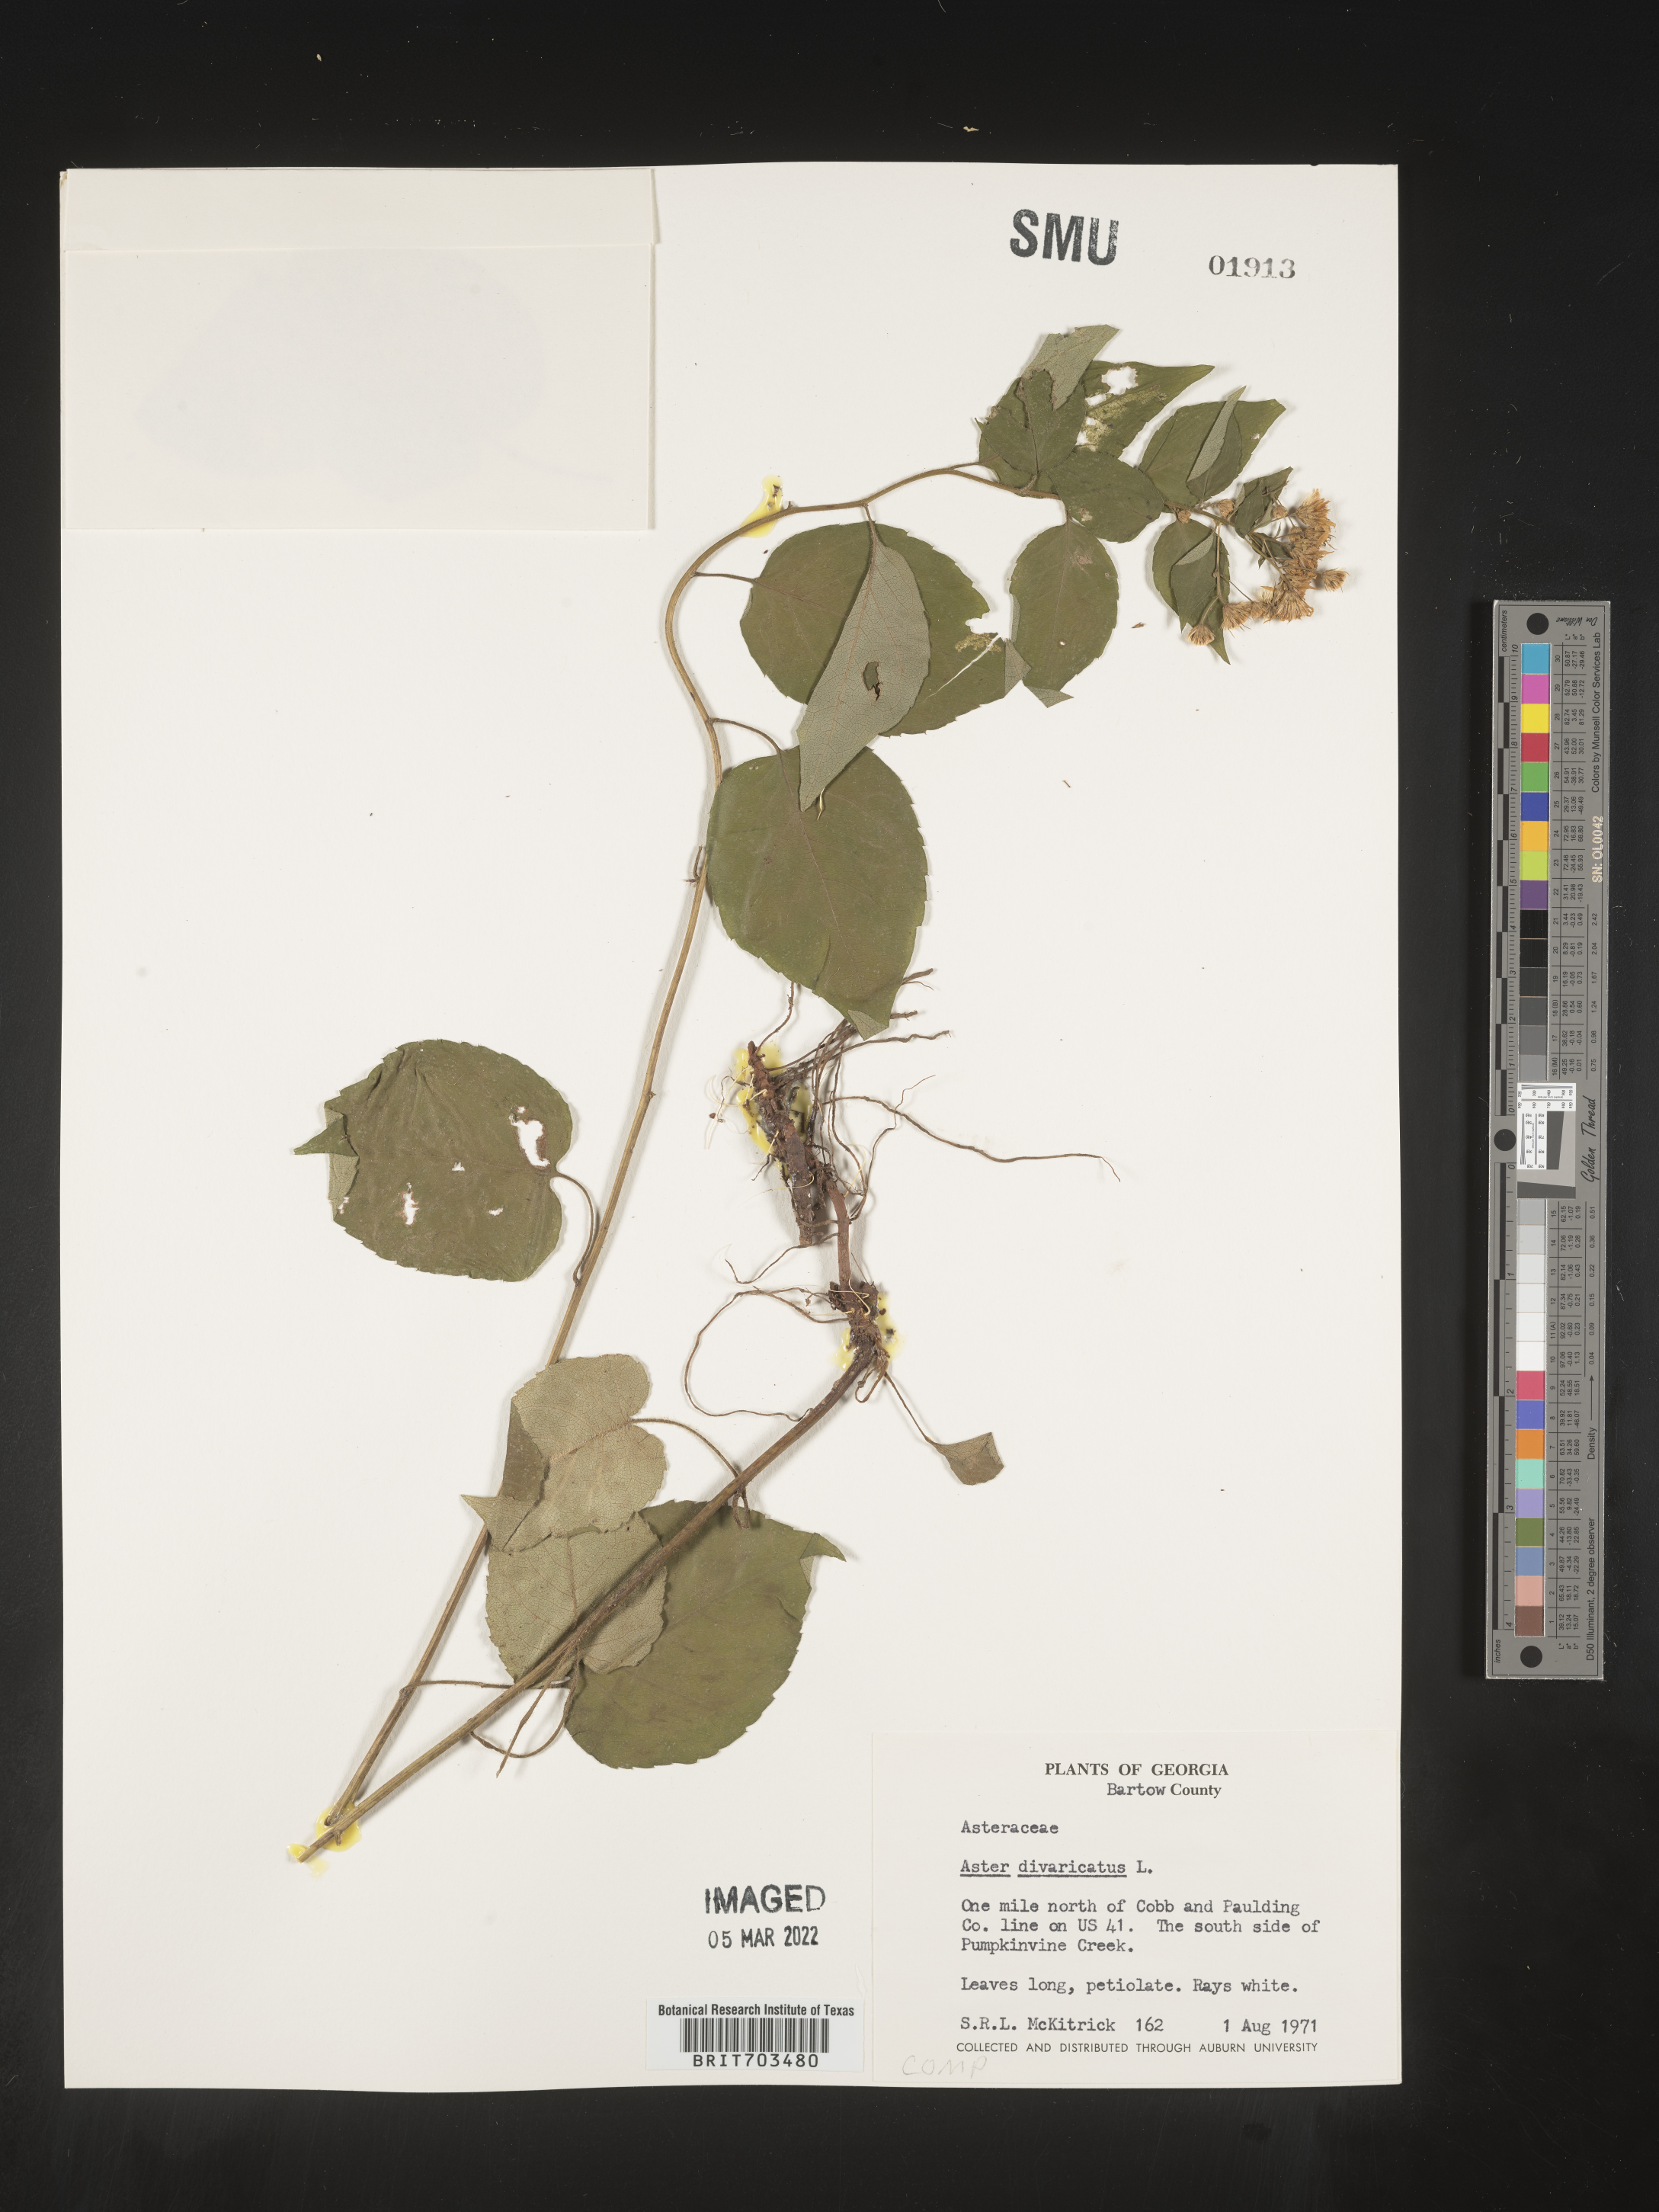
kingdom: Plantae
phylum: Tracheophyta
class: Magnoliopsida
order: Asterales
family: Asteraceae
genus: Eurybia
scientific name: Eurybia divaricata
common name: White wood aster
